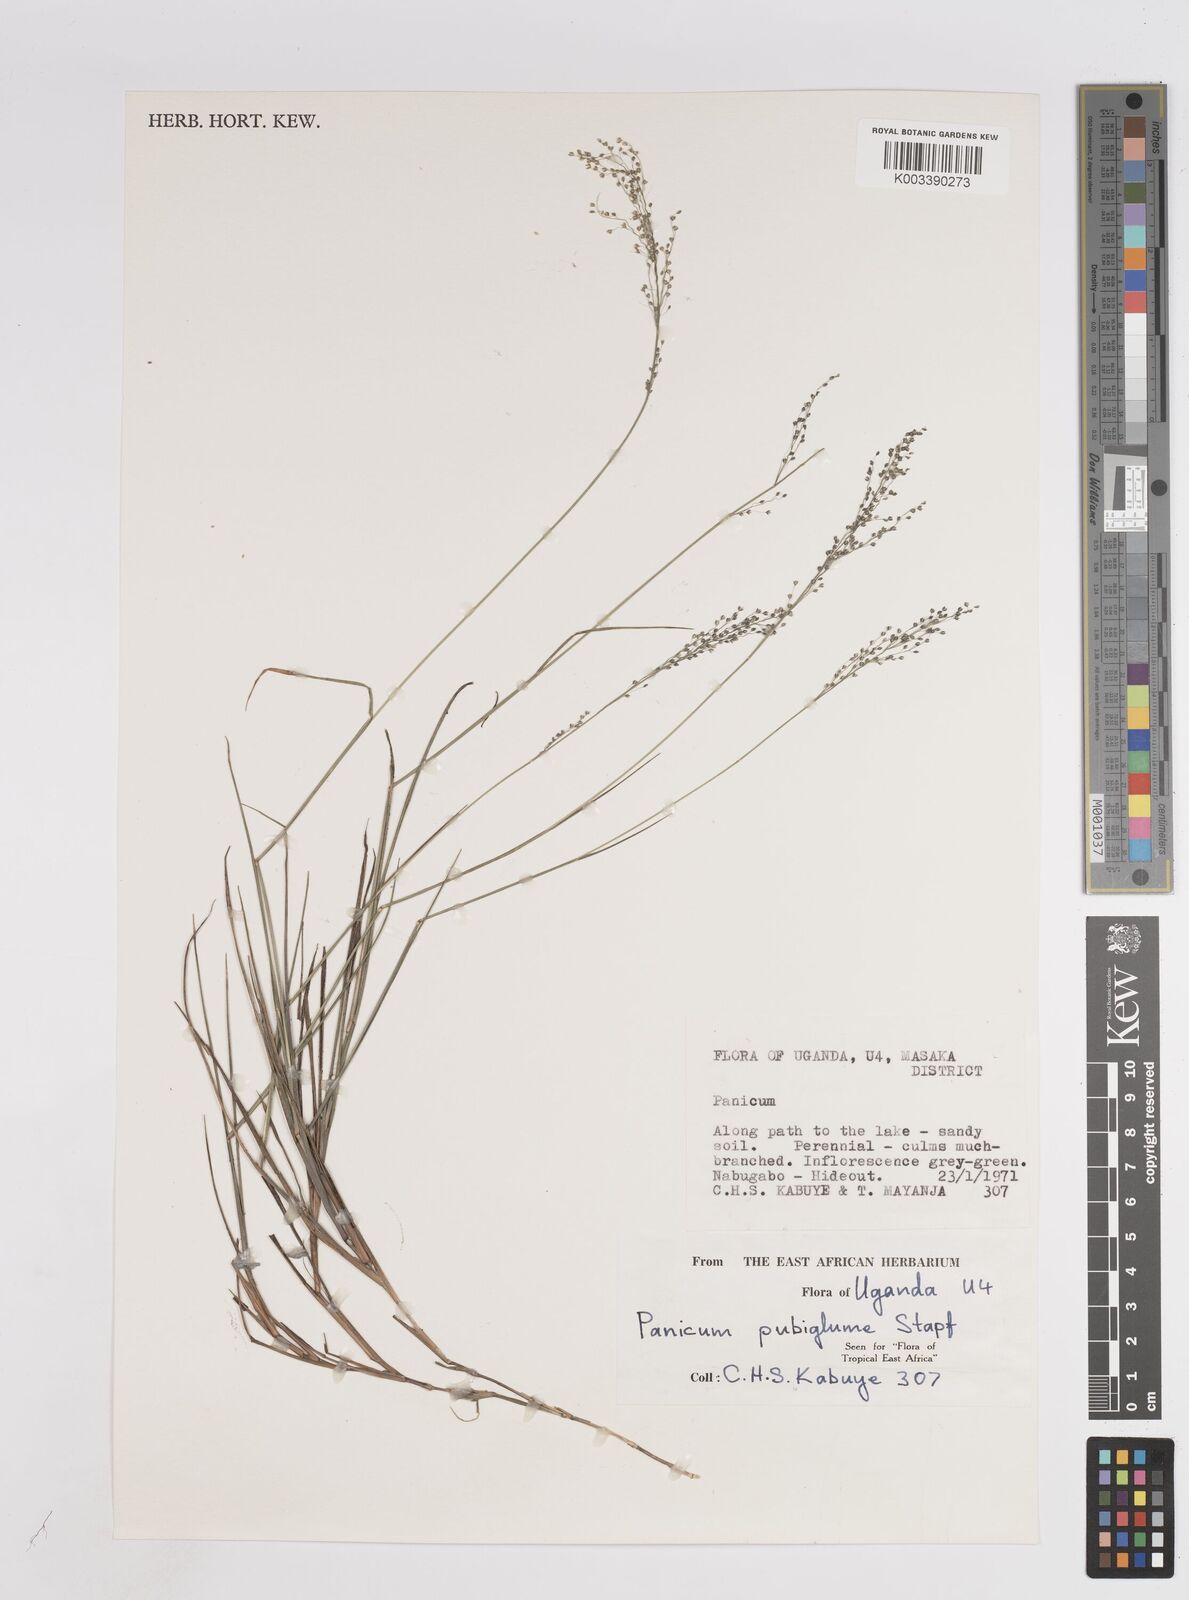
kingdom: Plantae
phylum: Tracheophyta
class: Liliopsida
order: Poales
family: Poaceae
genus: Trichanthecium
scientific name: Trichanthecium brazzavillense
